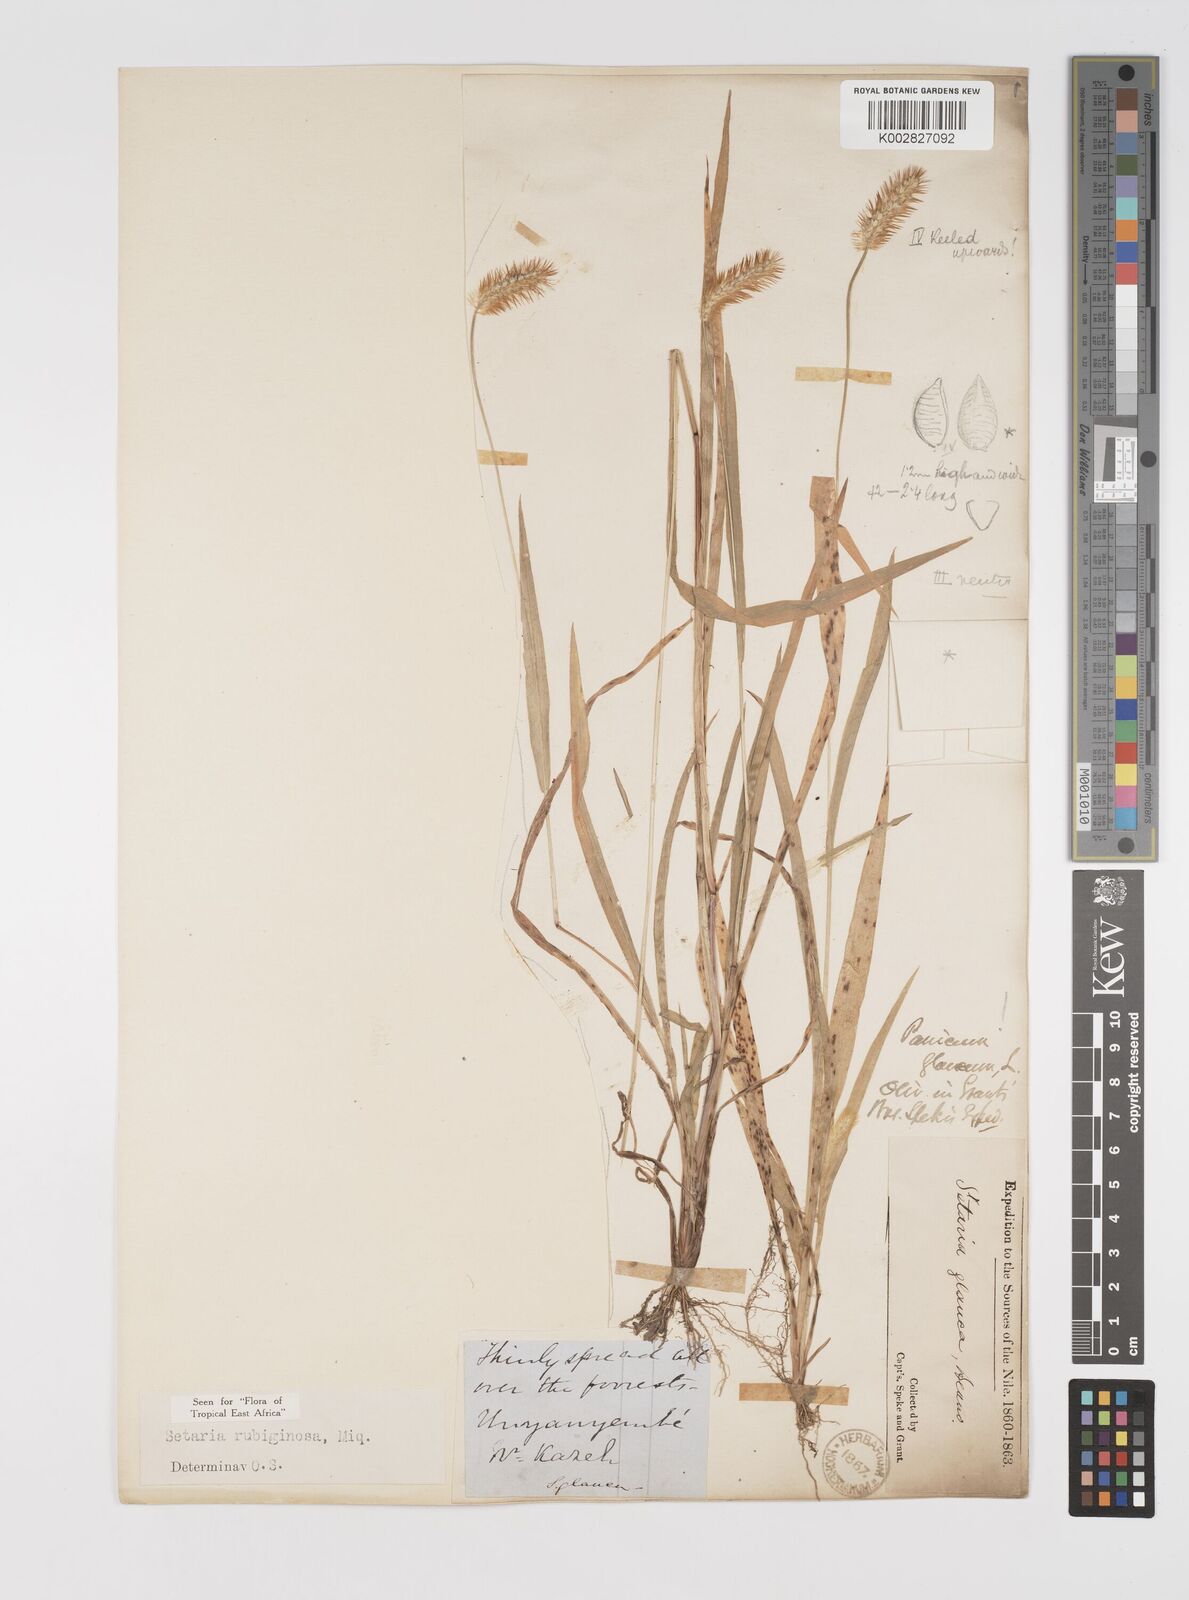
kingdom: Plantae
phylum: Tracheophyta
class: Liliopsida
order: Poales
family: Poaceae
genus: Setaria
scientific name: Setaria pumila
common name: Yellow bristle-grass
